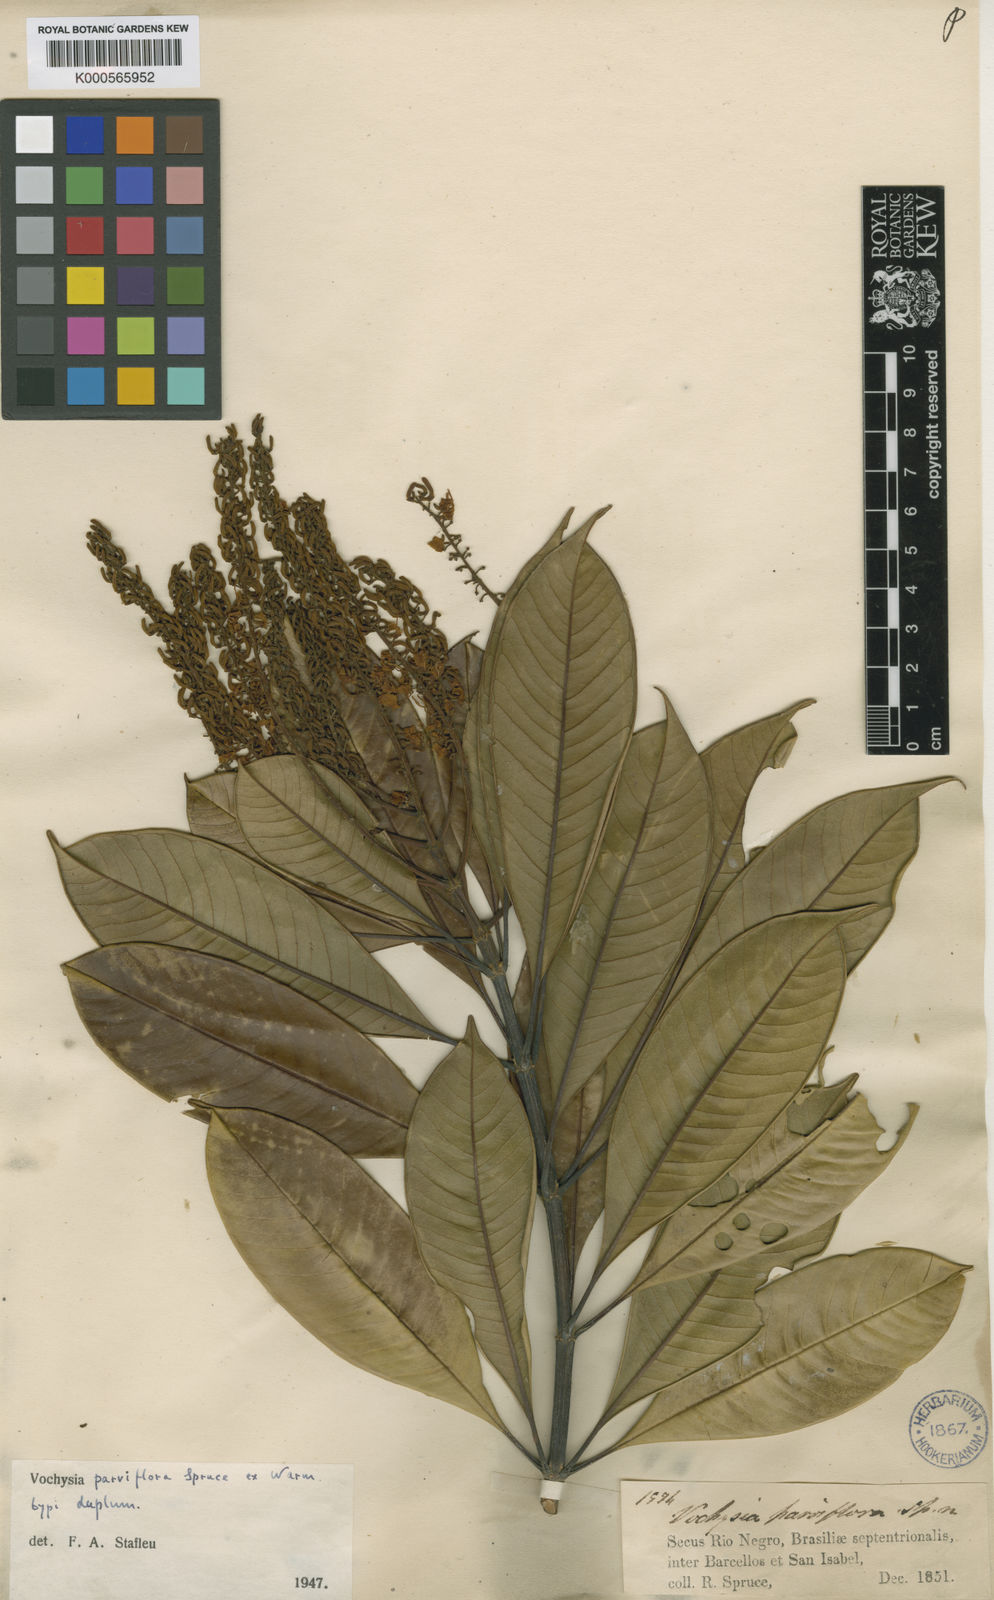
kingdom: Plantae
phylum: Tracheophyta
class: Magnoliopsida
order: Myrtales
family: Vochysiaceae
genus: Vochysia
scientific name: Vochysia parviflora
